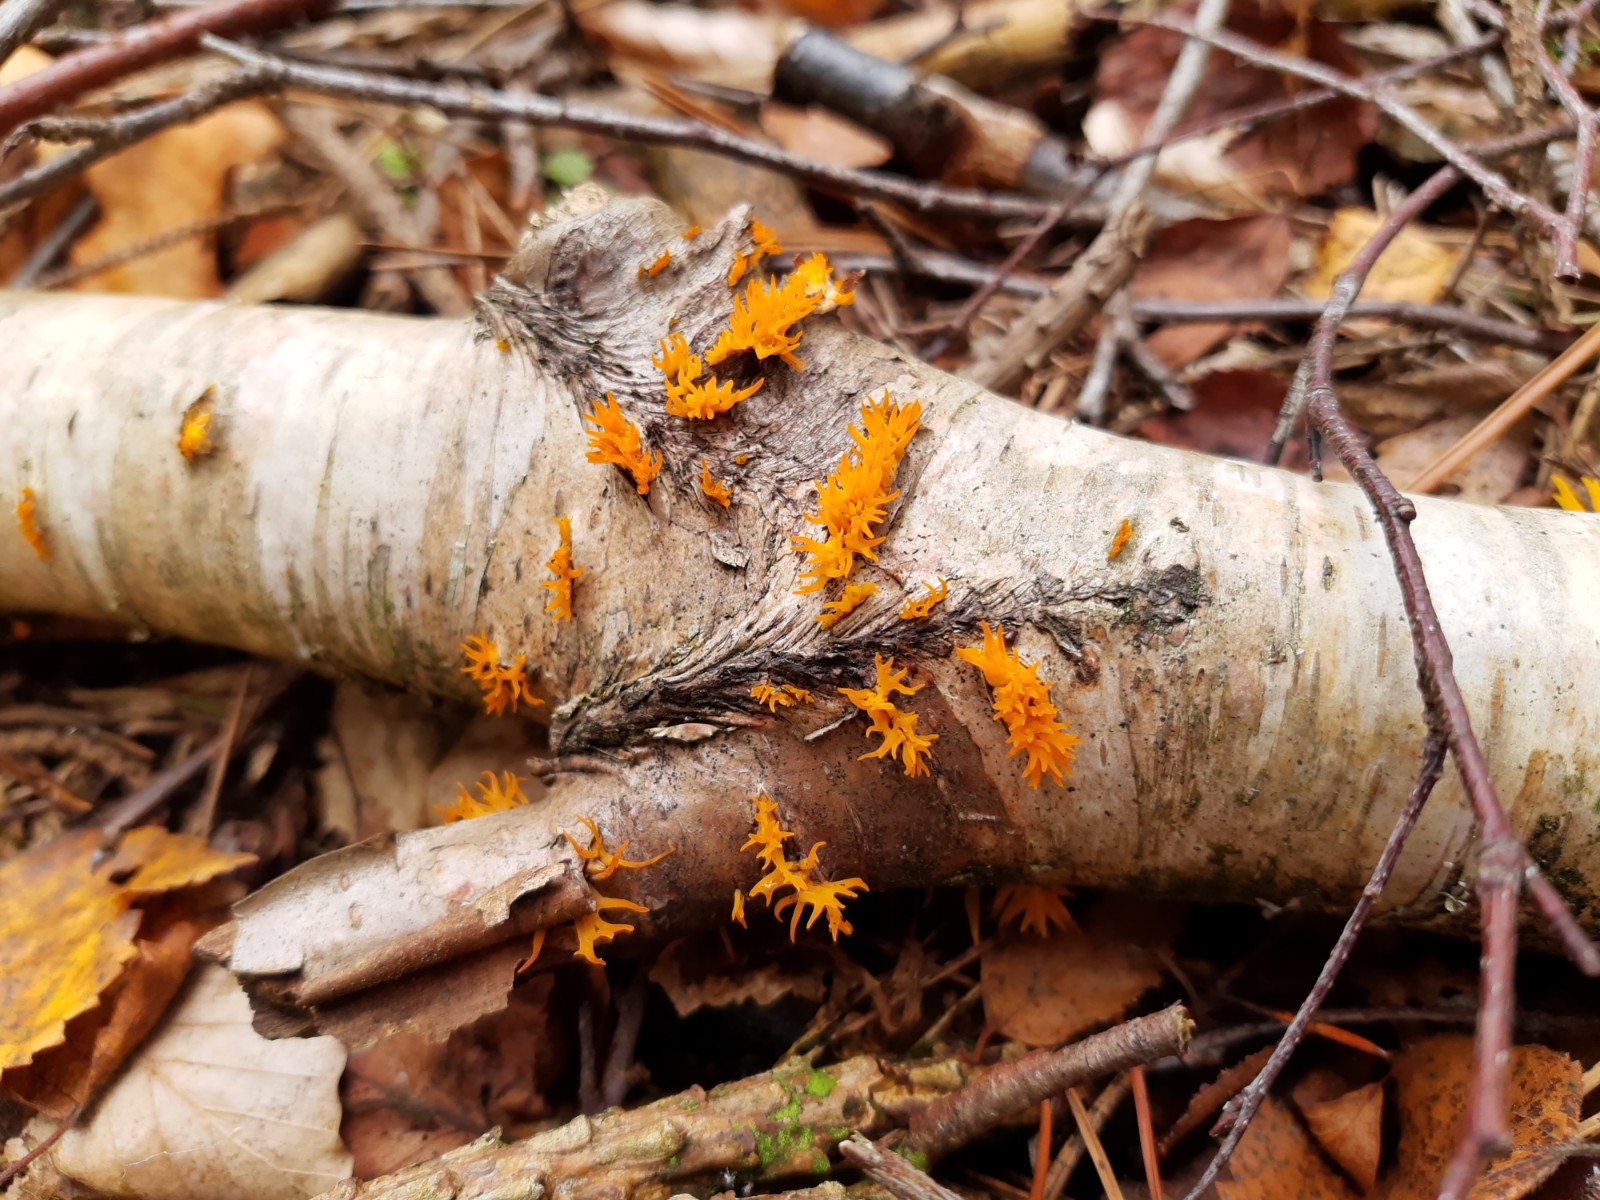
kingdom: Fungi
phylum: Basidiomycota
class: Dacrymycetes
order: Dacrymycetales
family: Dacrymycetaceae
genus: Calocera
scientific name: Calocera cornea
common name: liden guldgaffel
